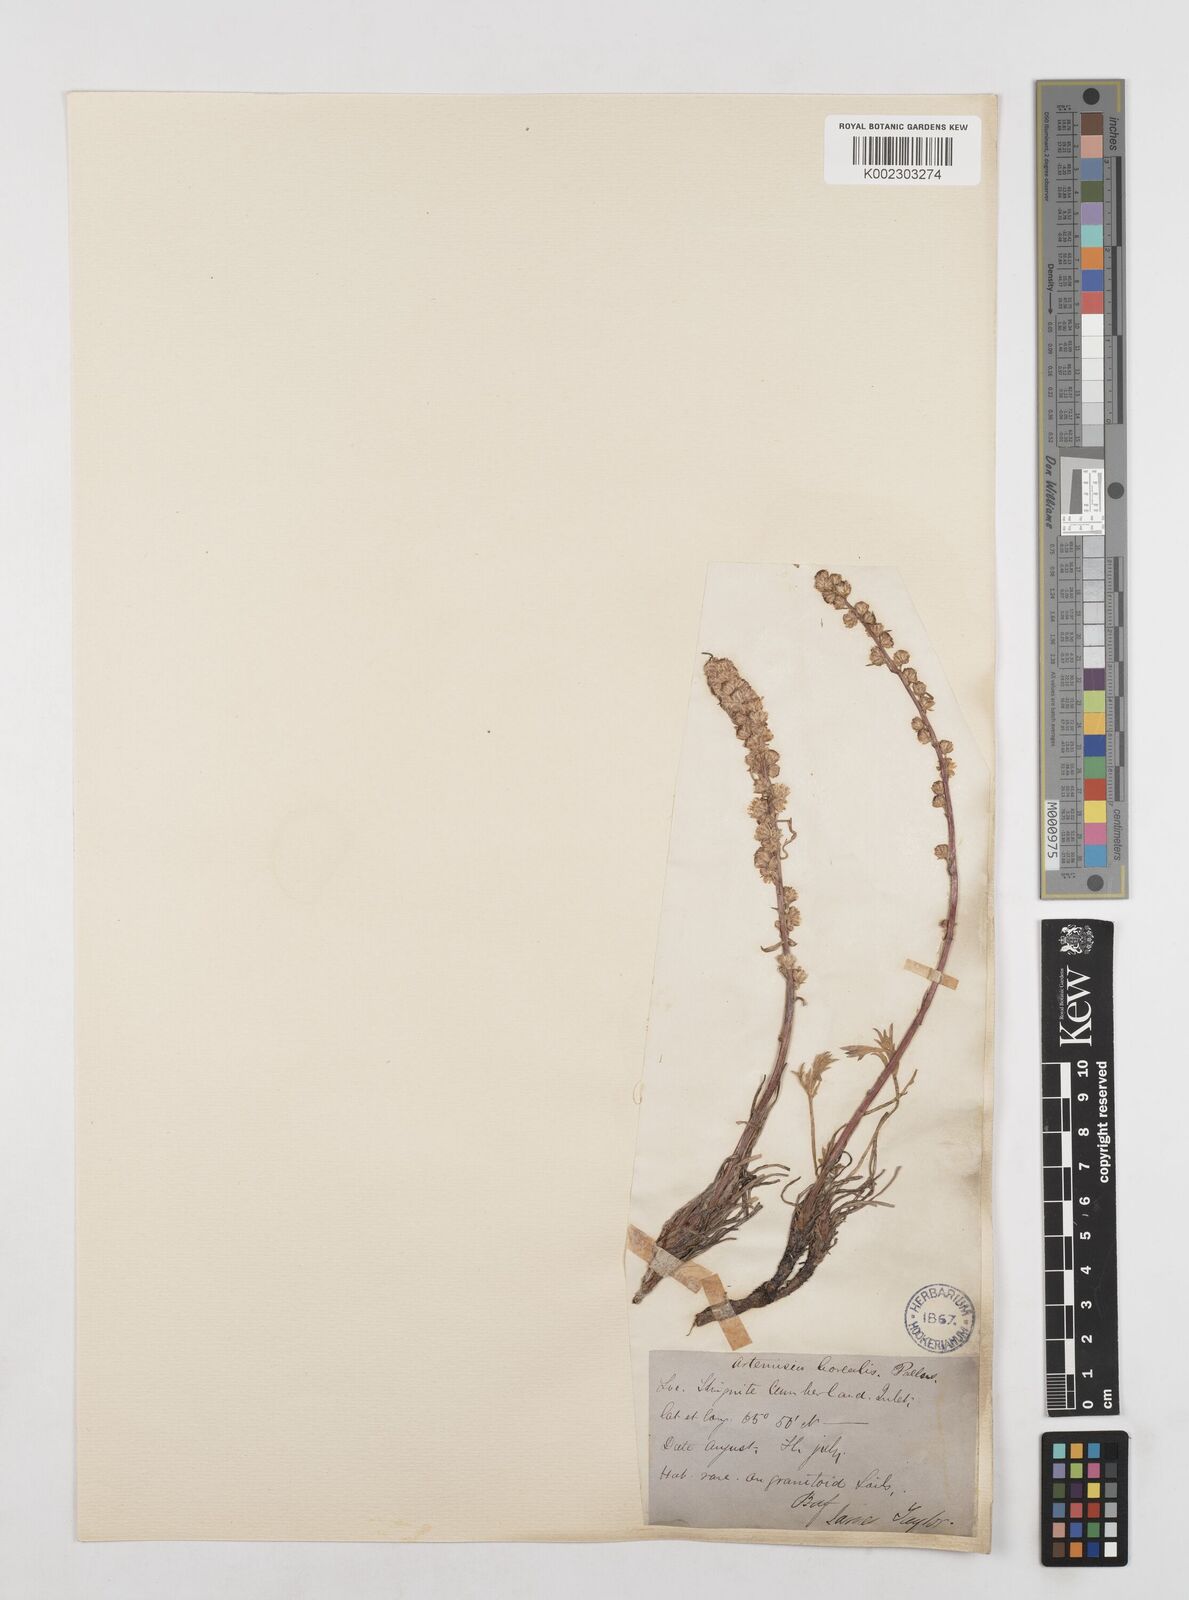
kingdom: Plantae
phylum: Tracheophyta
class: Magnoliopsida
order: Asterales
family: Asteraceae
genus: Artemisia
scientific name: Artemisia borealis
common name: Boreal sage
